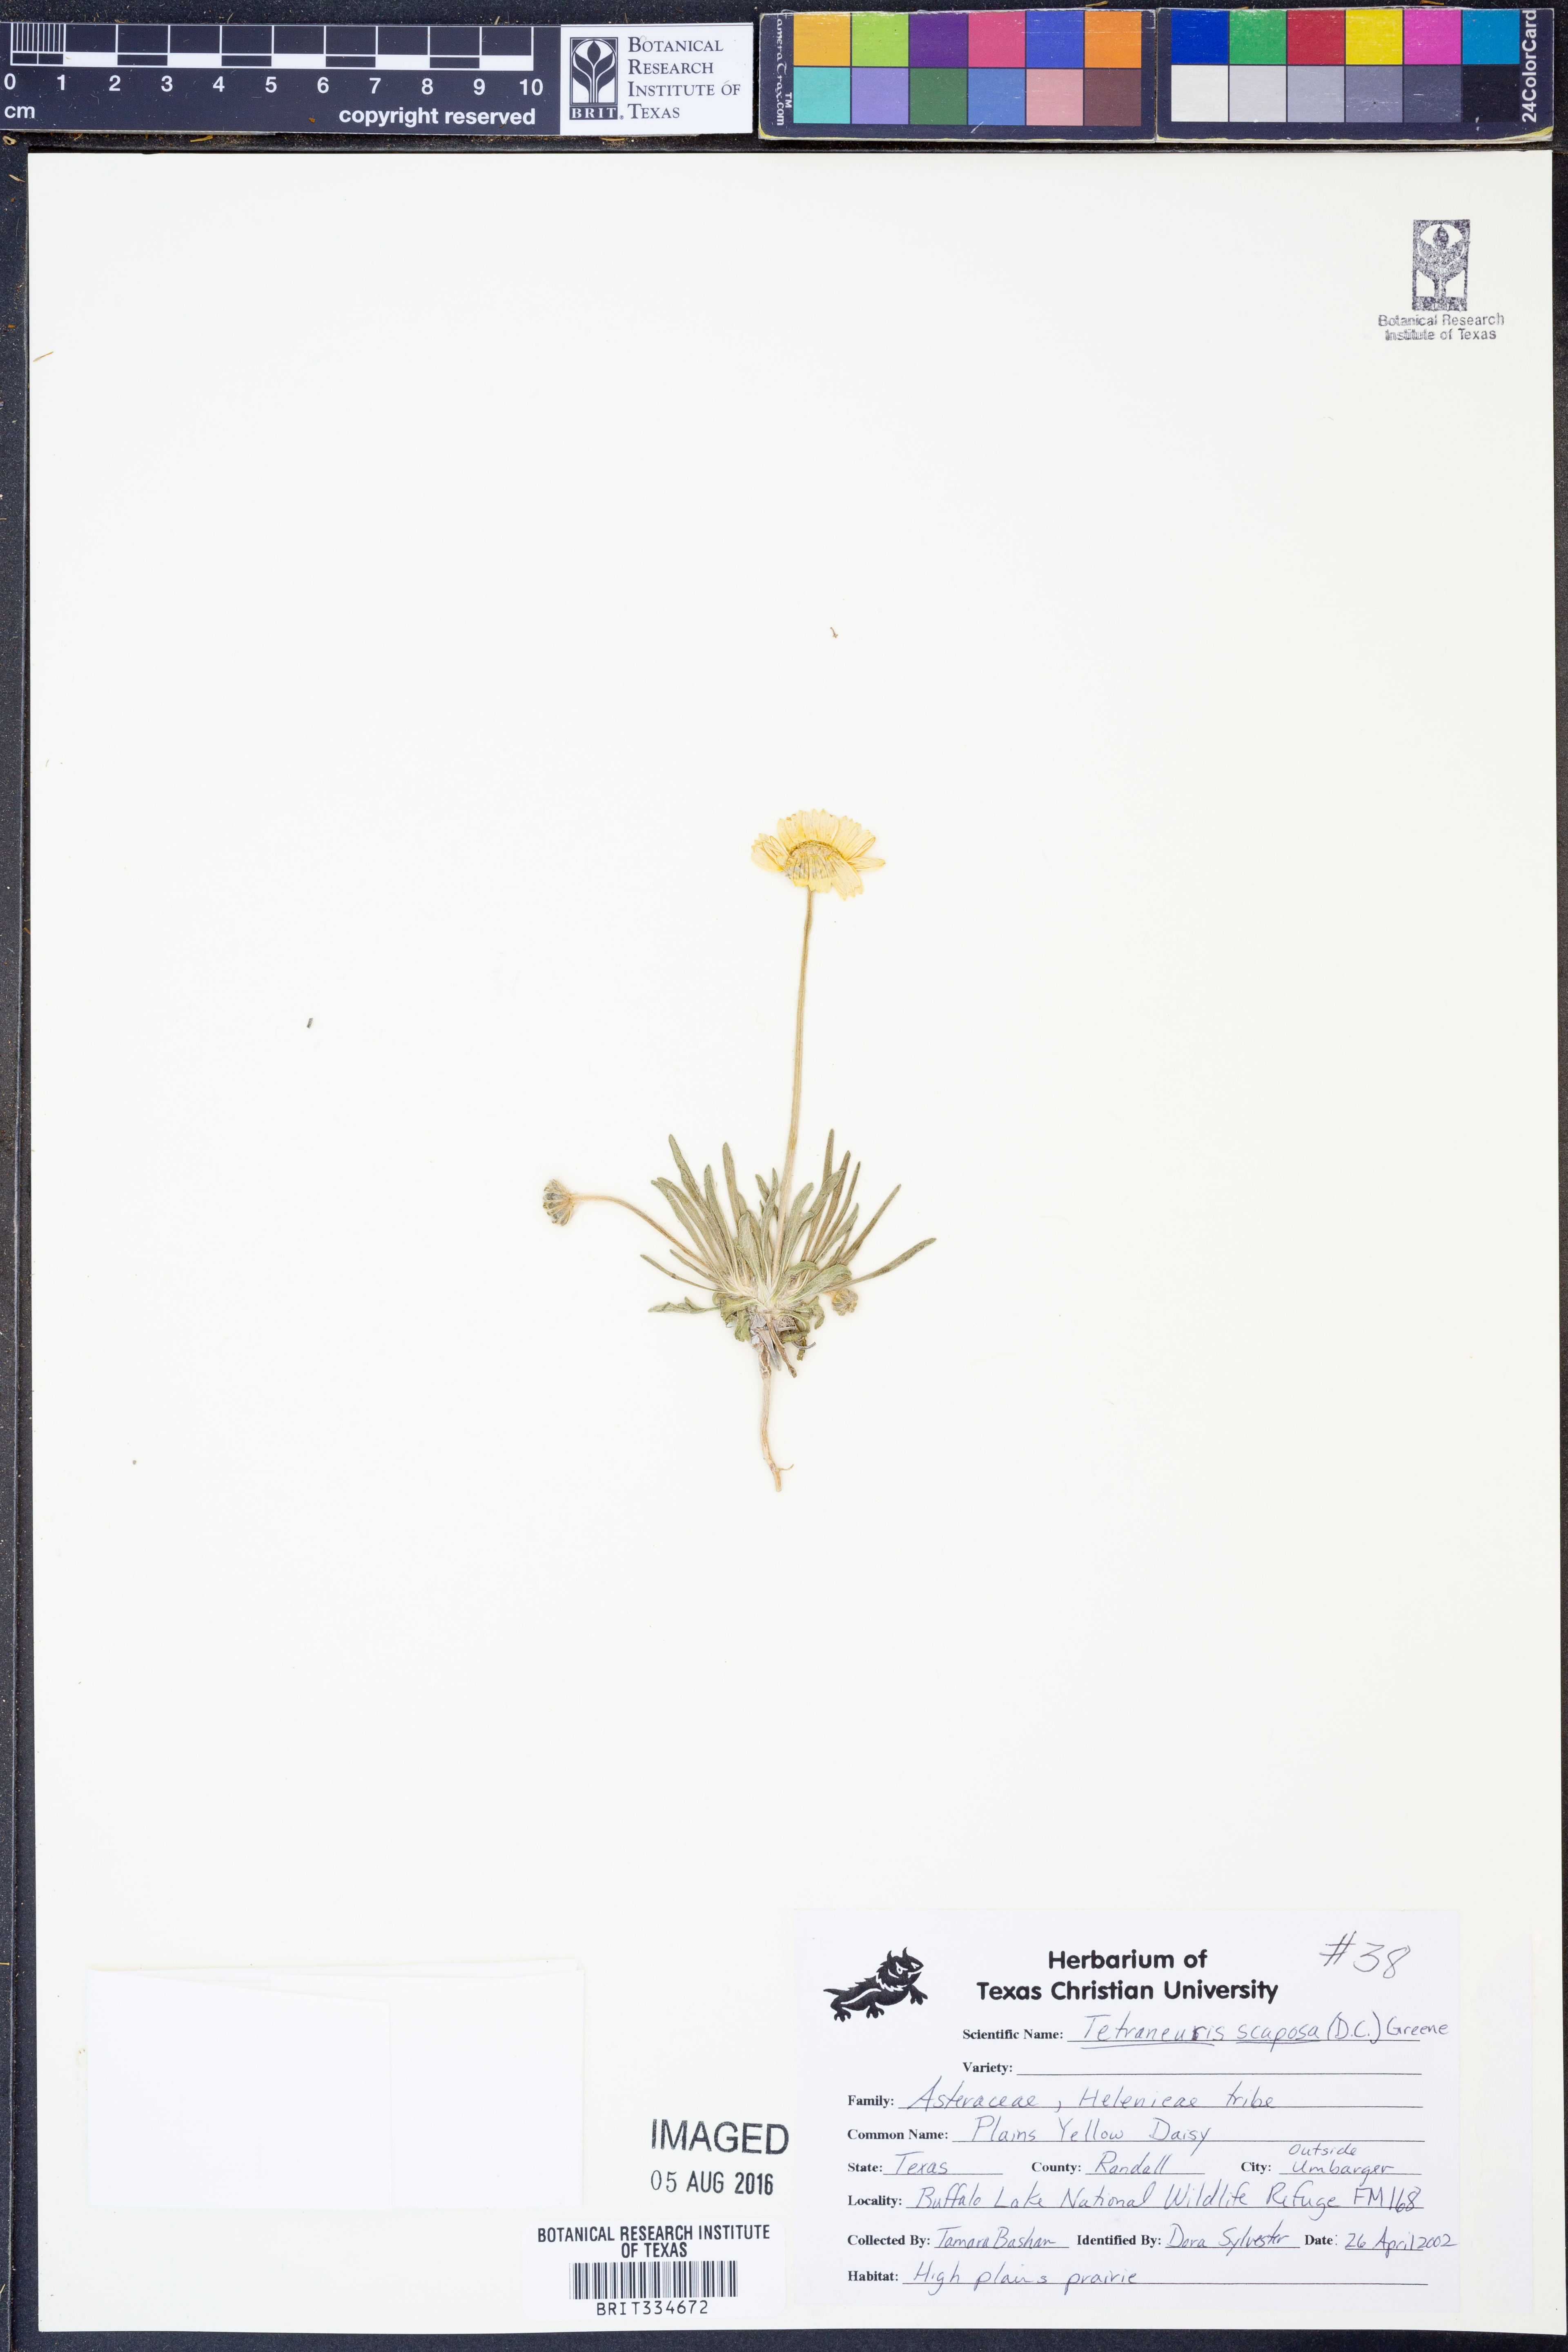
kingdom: Plantae
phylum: Tracheophyta
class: Magnoliopsida
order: Asterales
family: Asteraceae
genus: Tetraneuris
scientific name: Tetraneuris scaposa
